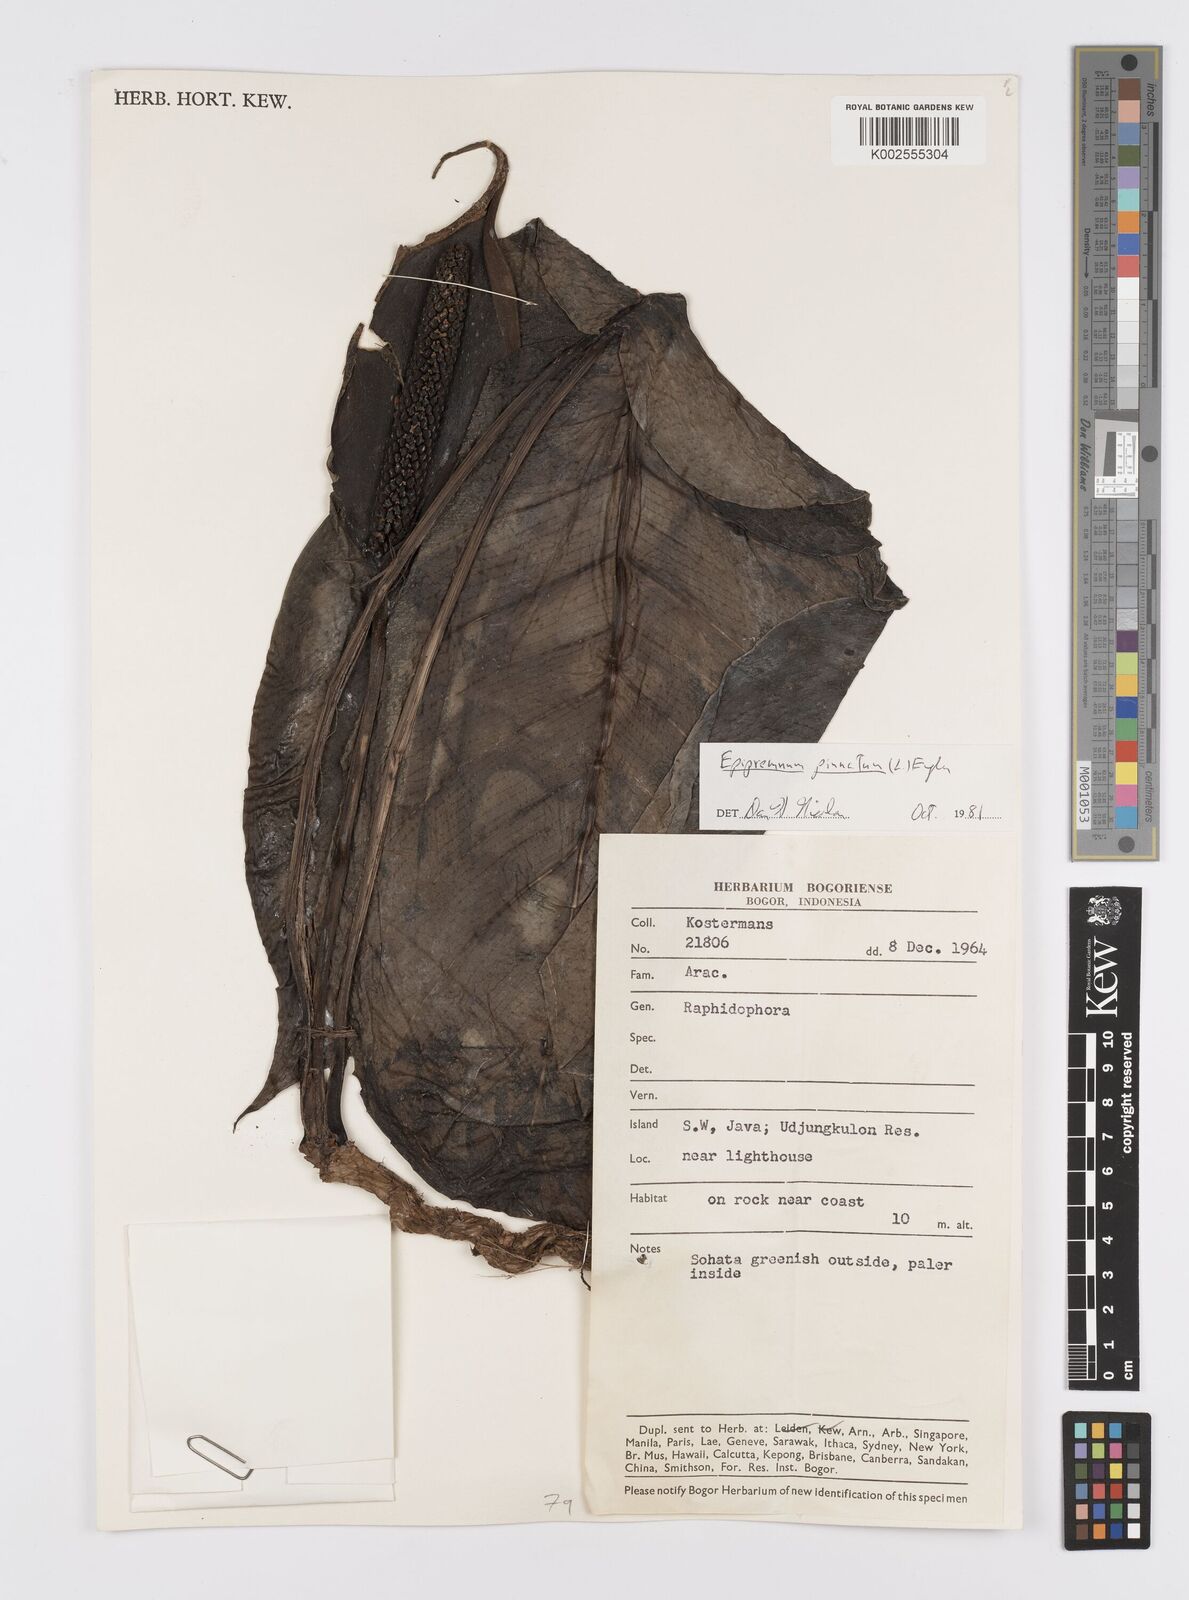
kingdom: Plantae
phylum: Tracheophyta
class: Liliopsida
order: Alismatales
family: Araceae
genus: Epipremnum
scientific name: Epipremnum pinnatum
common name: Centipede tongavine
